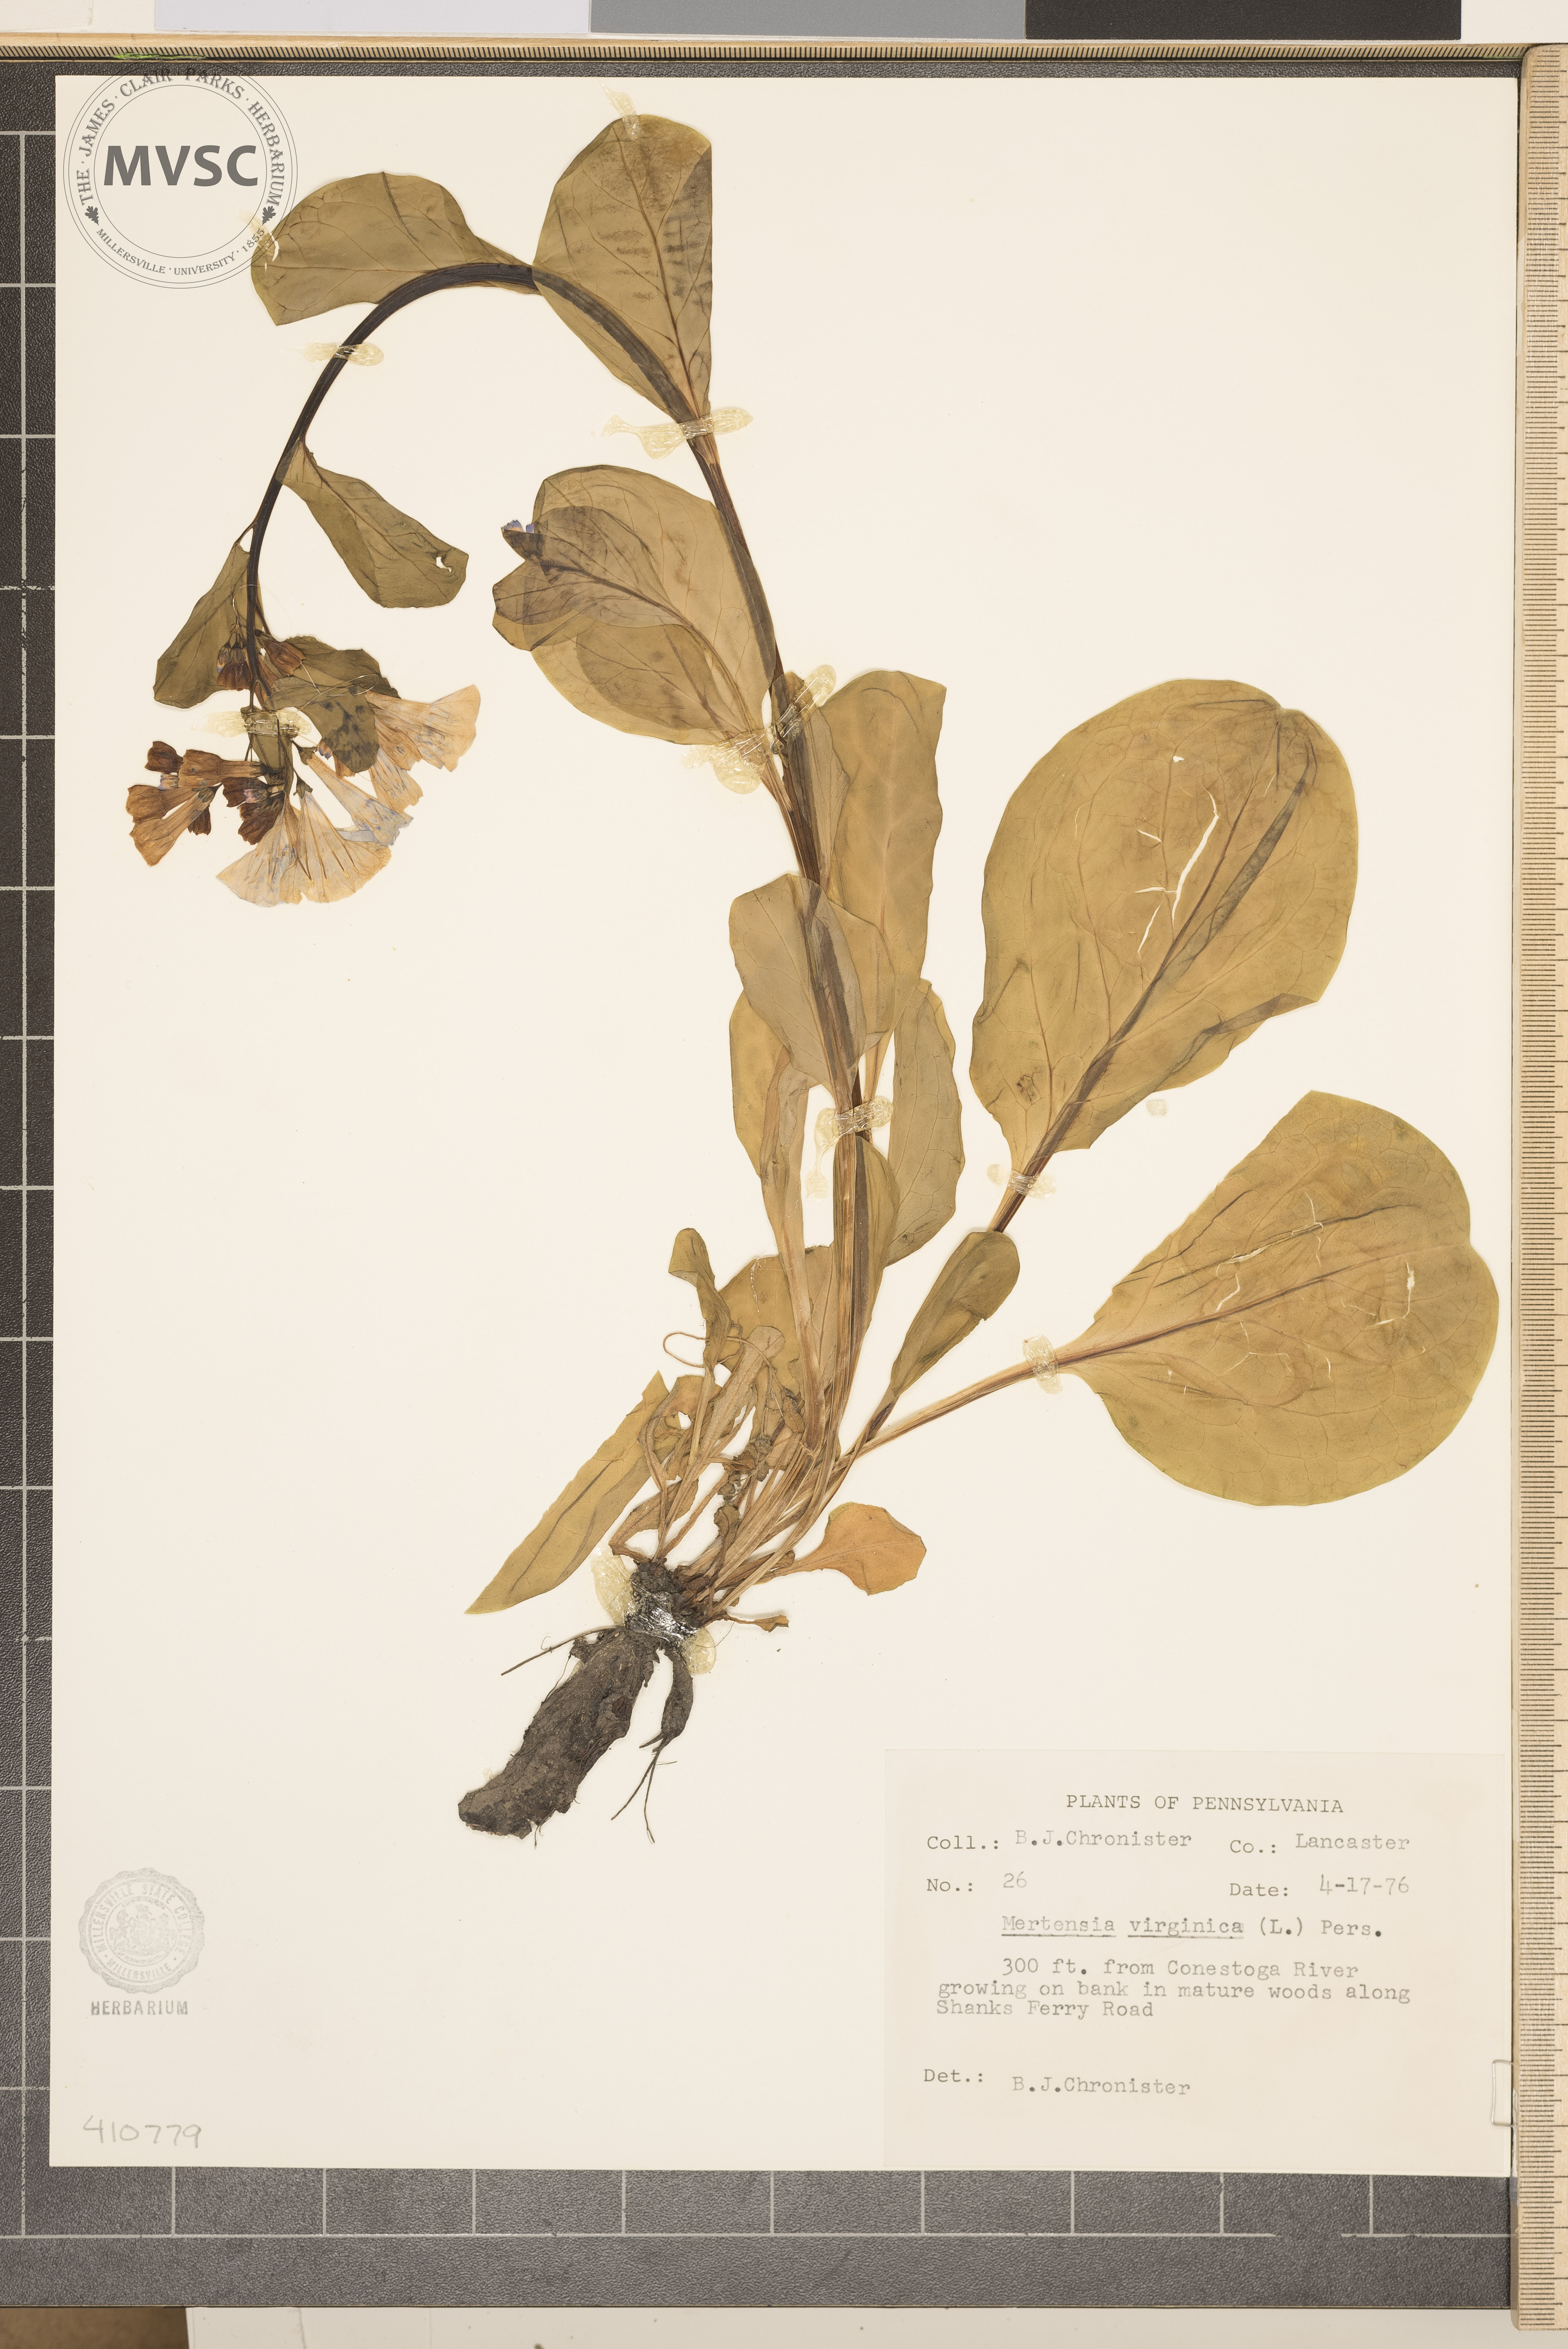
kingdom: Plantae
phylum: Tracheophyta
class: Magnoliopsida
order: Boraginales
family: Boraginaceae
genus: Mertensia
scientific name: Mertensia virginica
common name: Virginia bluebells
